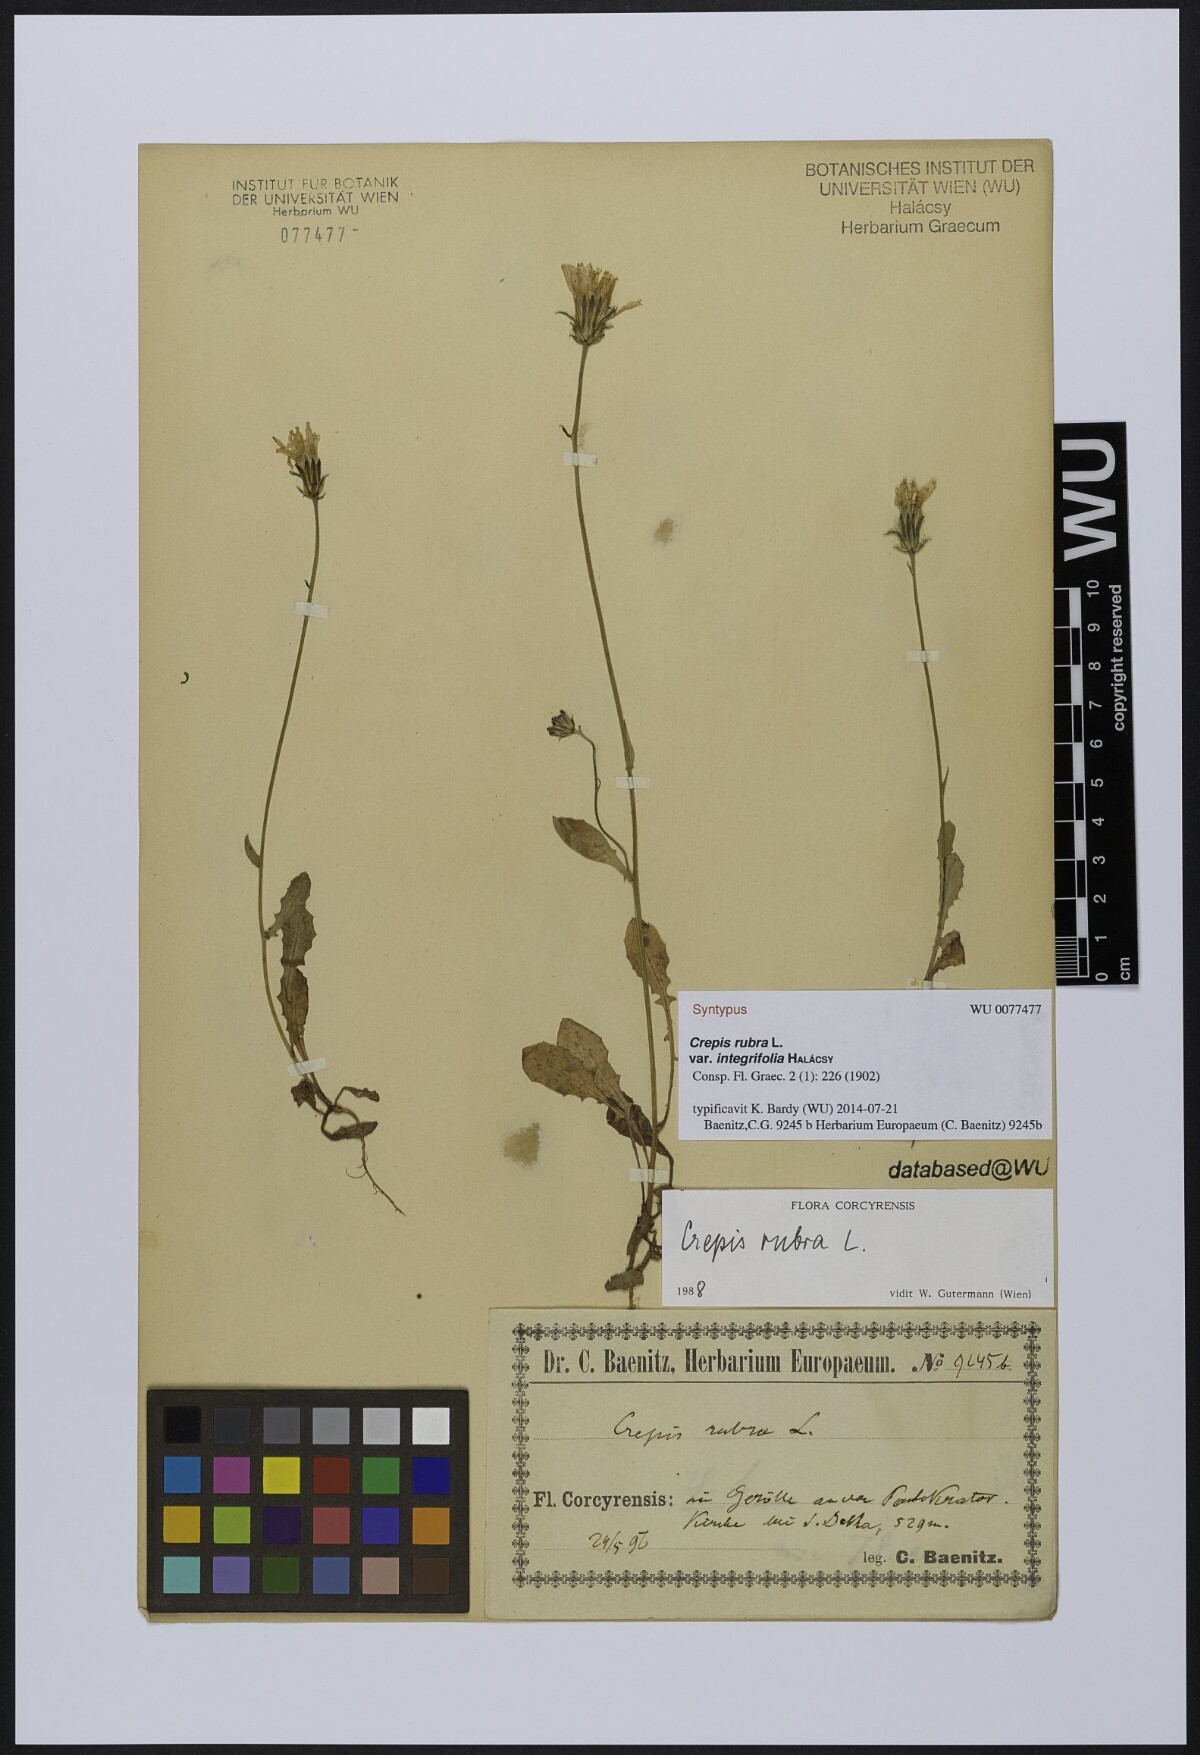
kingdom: Plantae
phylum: Tracheophyta
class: Magnoliopsida
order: Asterales
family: Asteraceae
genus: Crepis
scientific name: Crepis rubra
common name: Pink hawk's-beard
